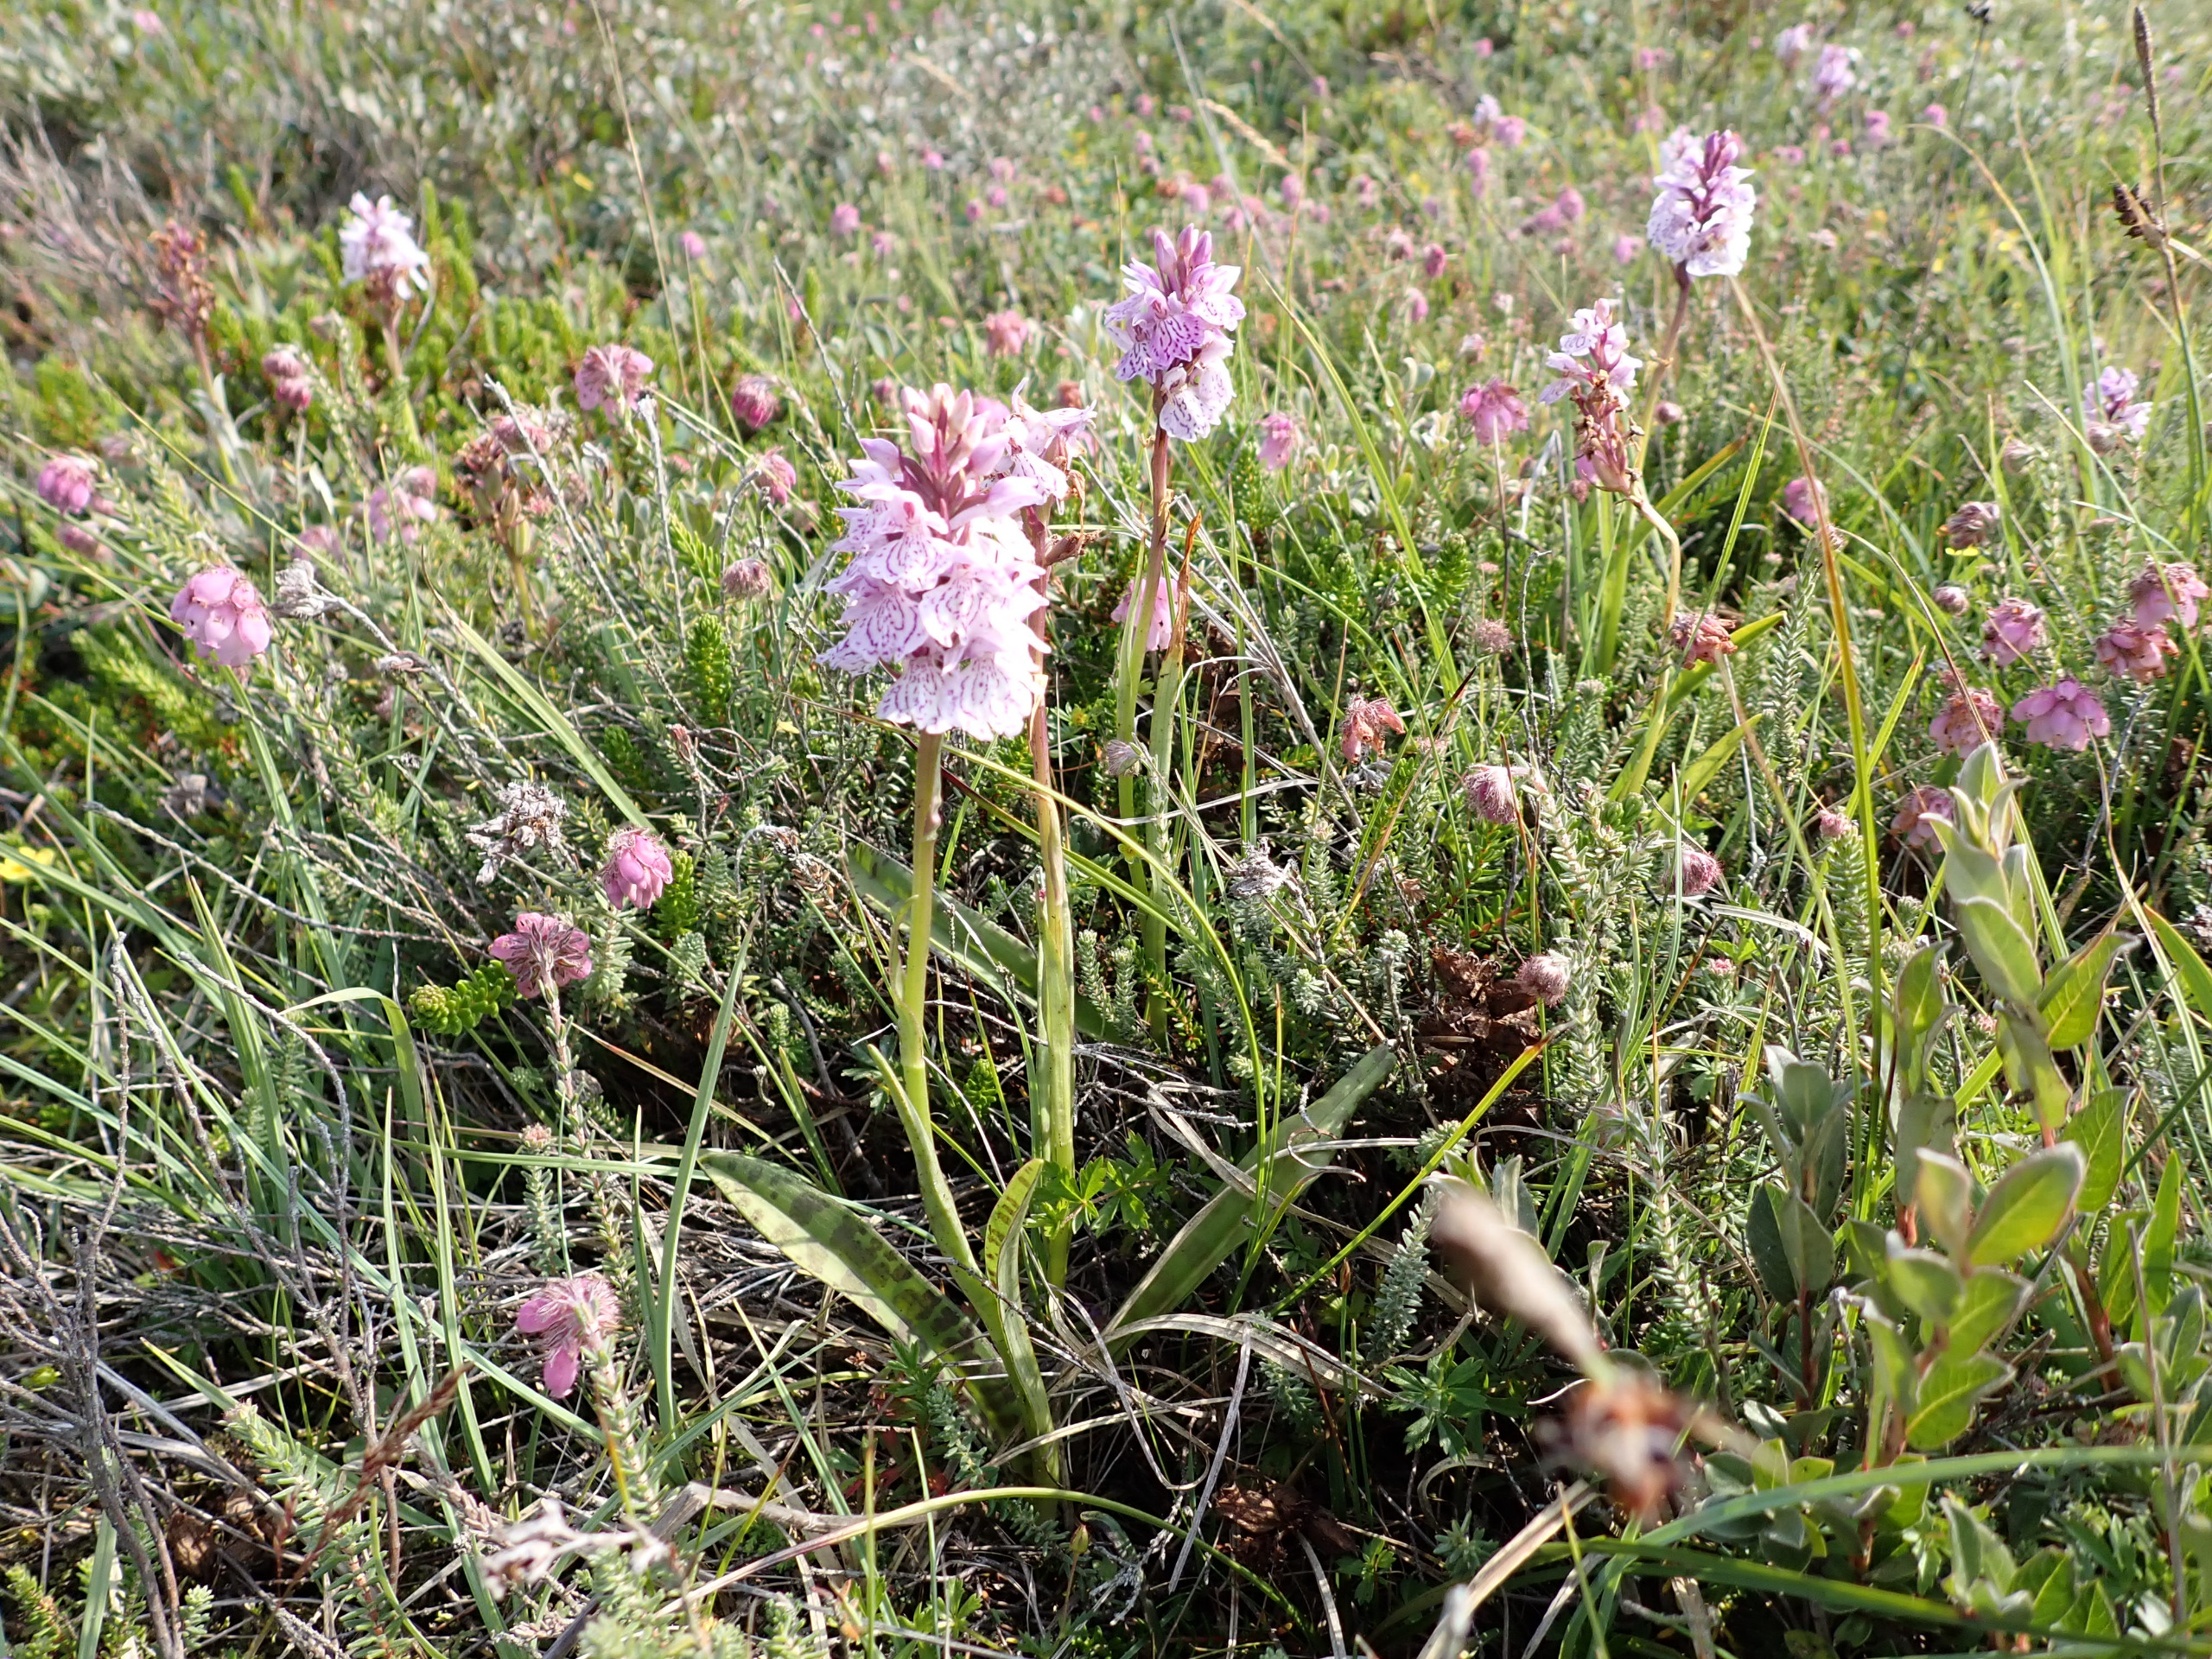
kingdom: Plantae
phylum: Tracheophyta
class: Liliopsida
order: Asparagales
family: Orchidaceae
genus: Dactylorhiza
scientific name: Dactylorhiza maculata
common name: Plettet gøgeurt (underart)
